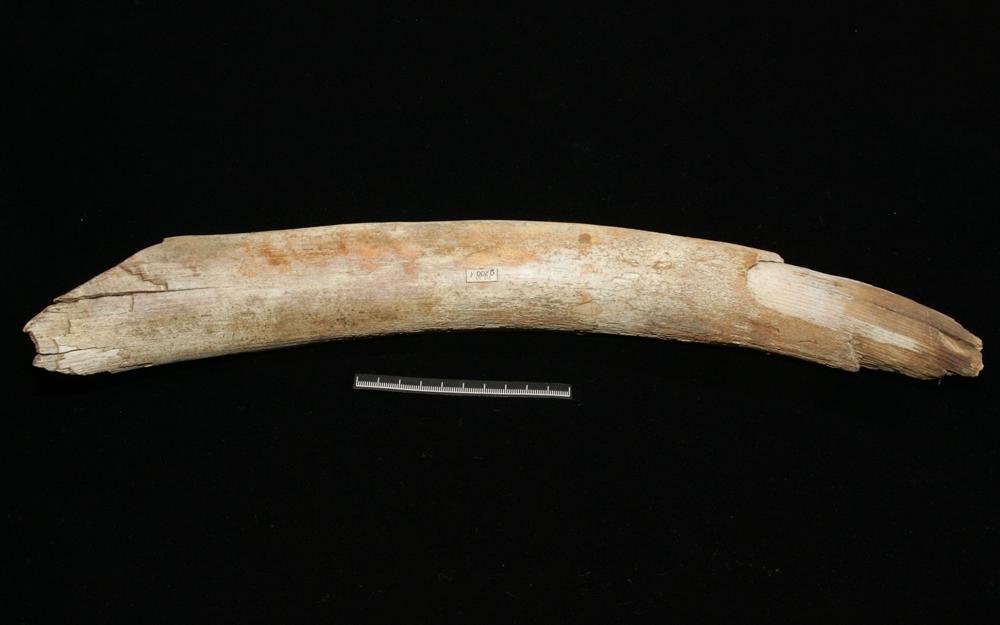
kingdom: Animalia
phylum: Chordata
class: Mammalia
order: Proboscidea
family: Elephantidae
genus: Mammuthus
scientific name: Mammuthus primigenius
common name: Wooly mammoth
